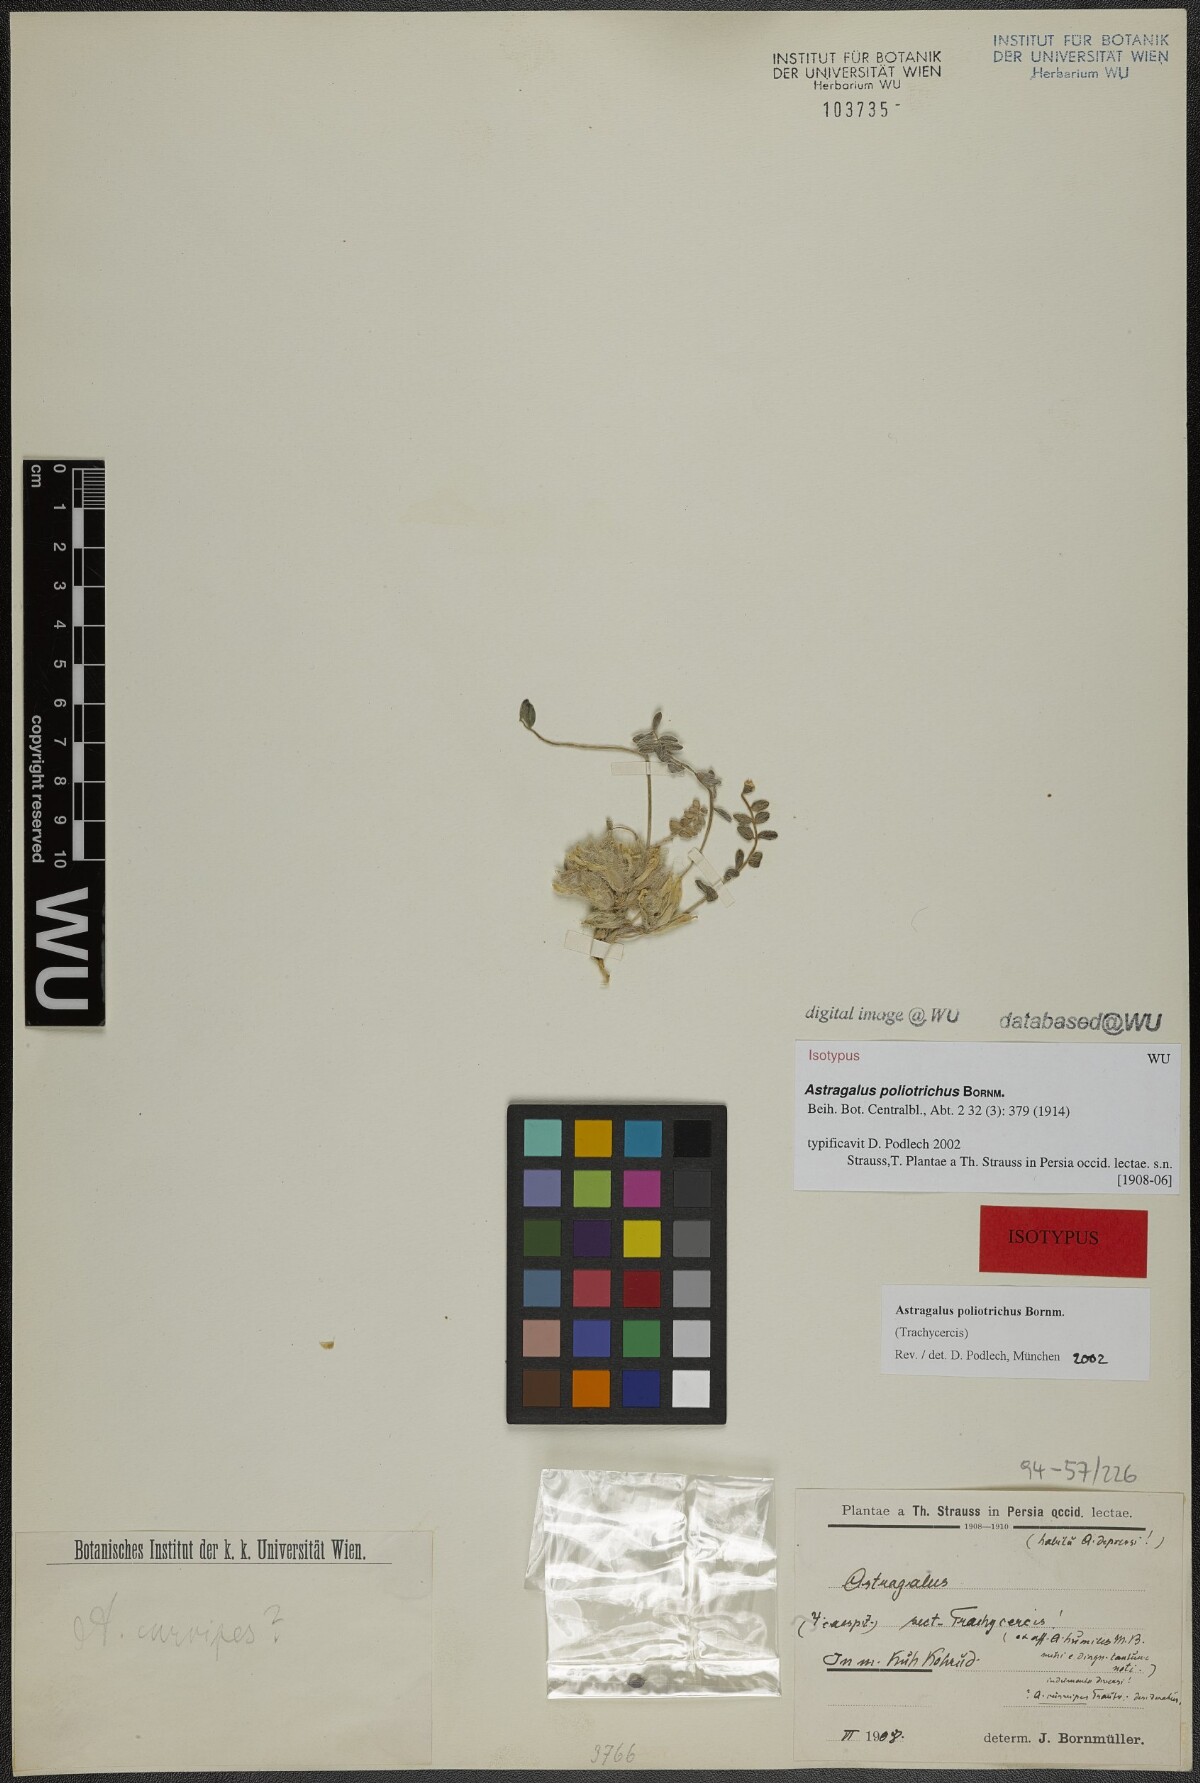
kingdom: Plantae
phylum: Tracheophyta
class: Magnoliopsida
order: Fabales
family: Fabaceae
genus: Astragalus
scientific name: Astragalus poliotrichus
